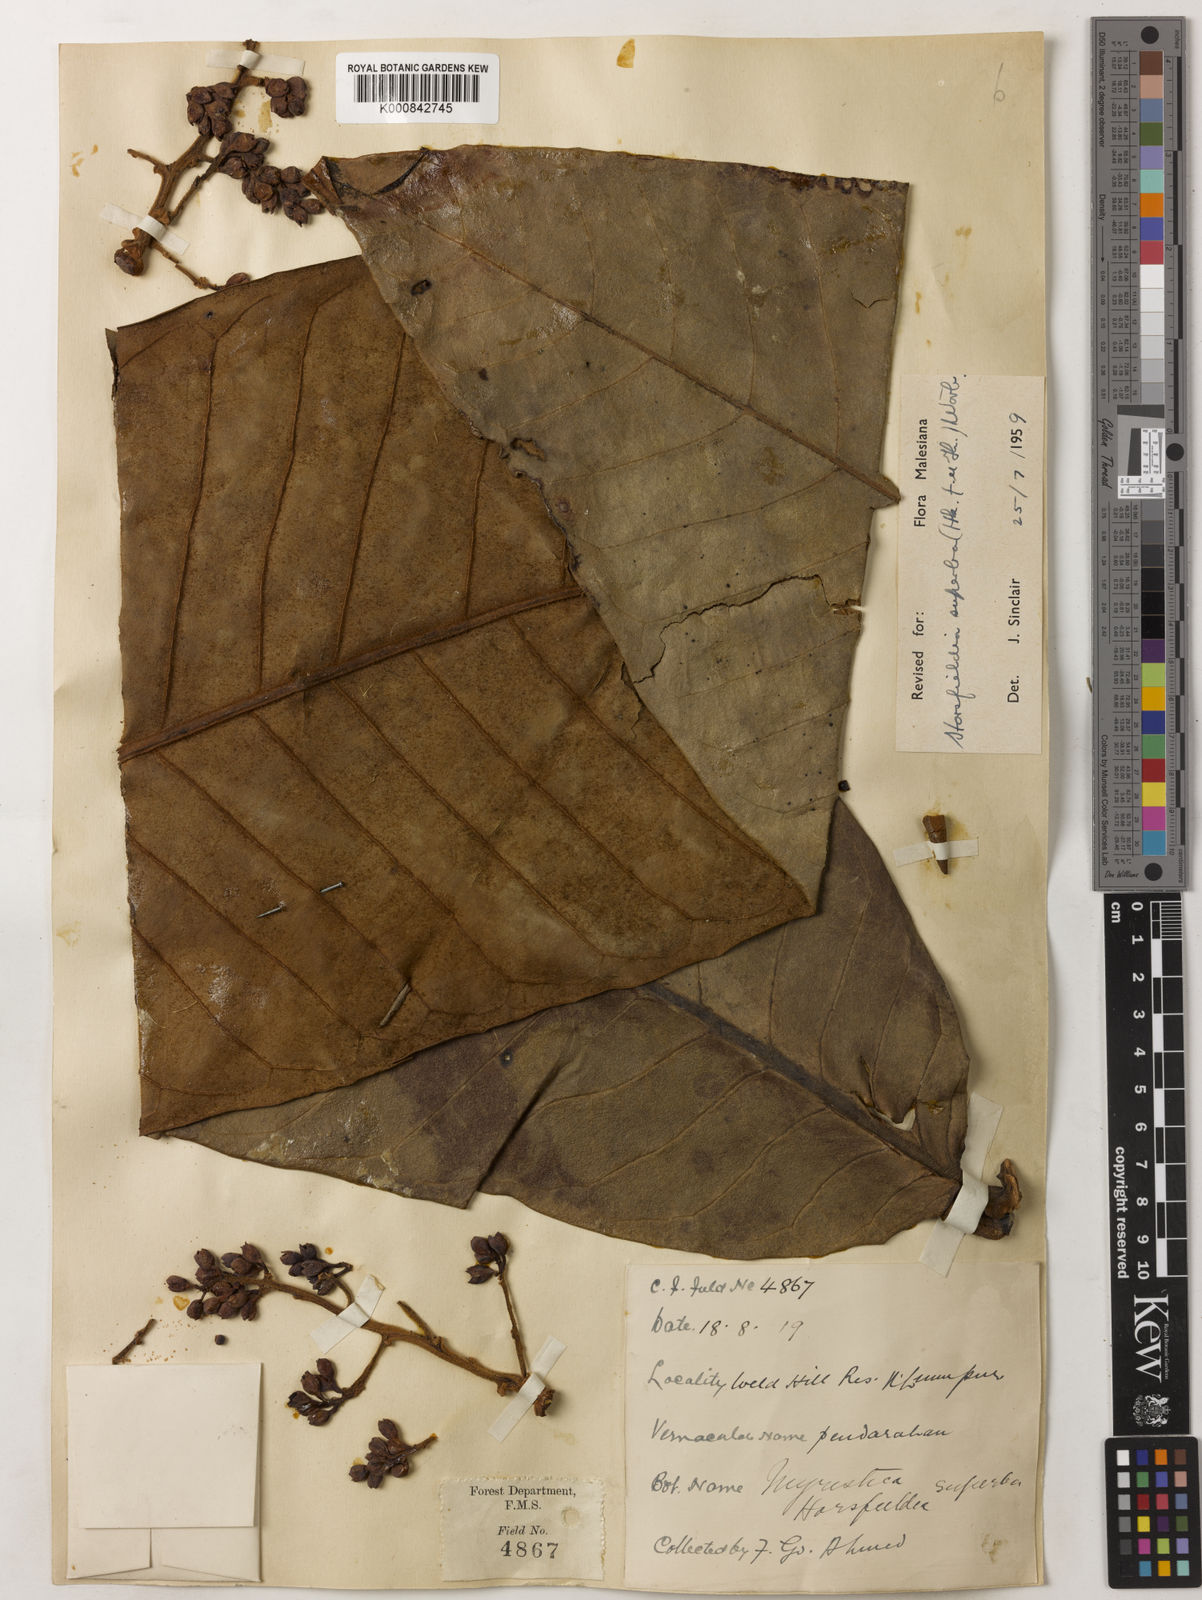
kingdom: Plantae
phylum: Tracheophyta
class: Magnoliopsida
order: Magnoliales
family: Myristicaceae
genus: Horsfieldia
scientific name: Horsfieldia superba
